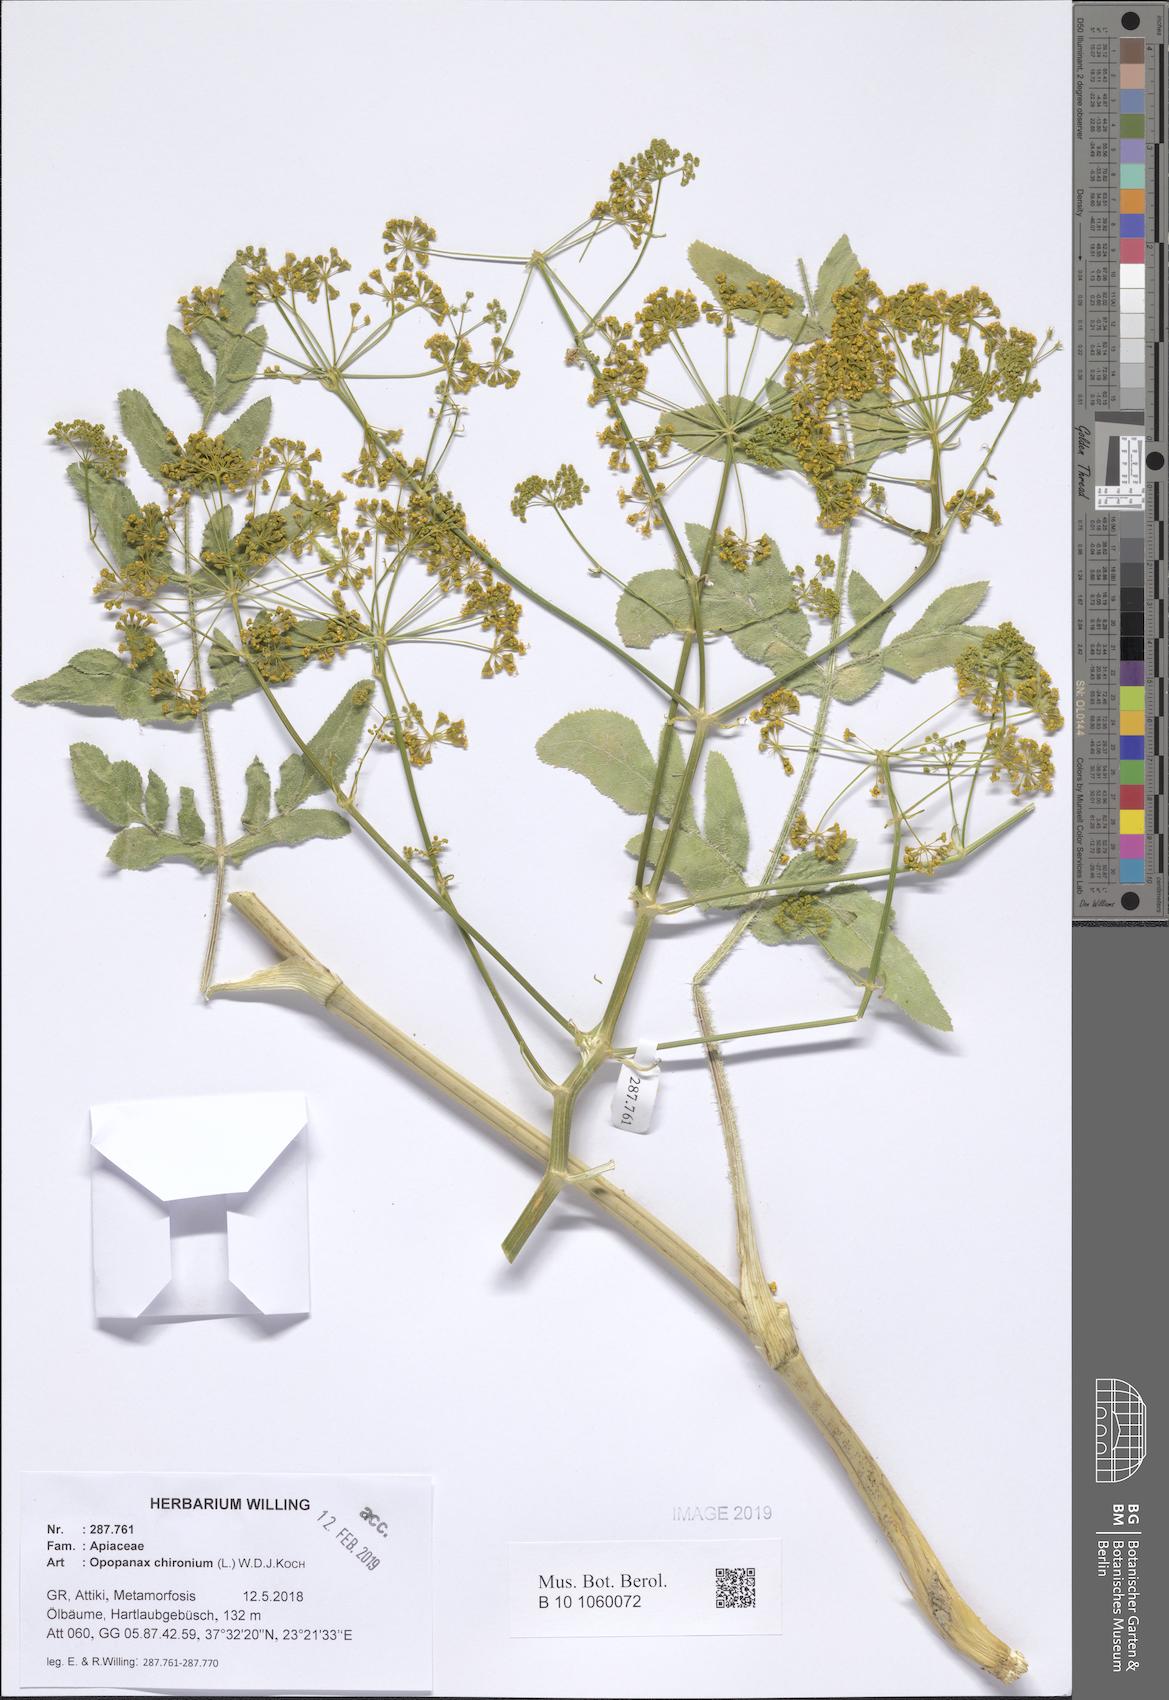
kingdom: Plantae
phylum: Tracheophyta
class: Magnoliopsida
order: Apiales
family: Apiaceae
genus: Opopanax
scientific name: Opopanax chironium
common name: Hercules-all-heal
